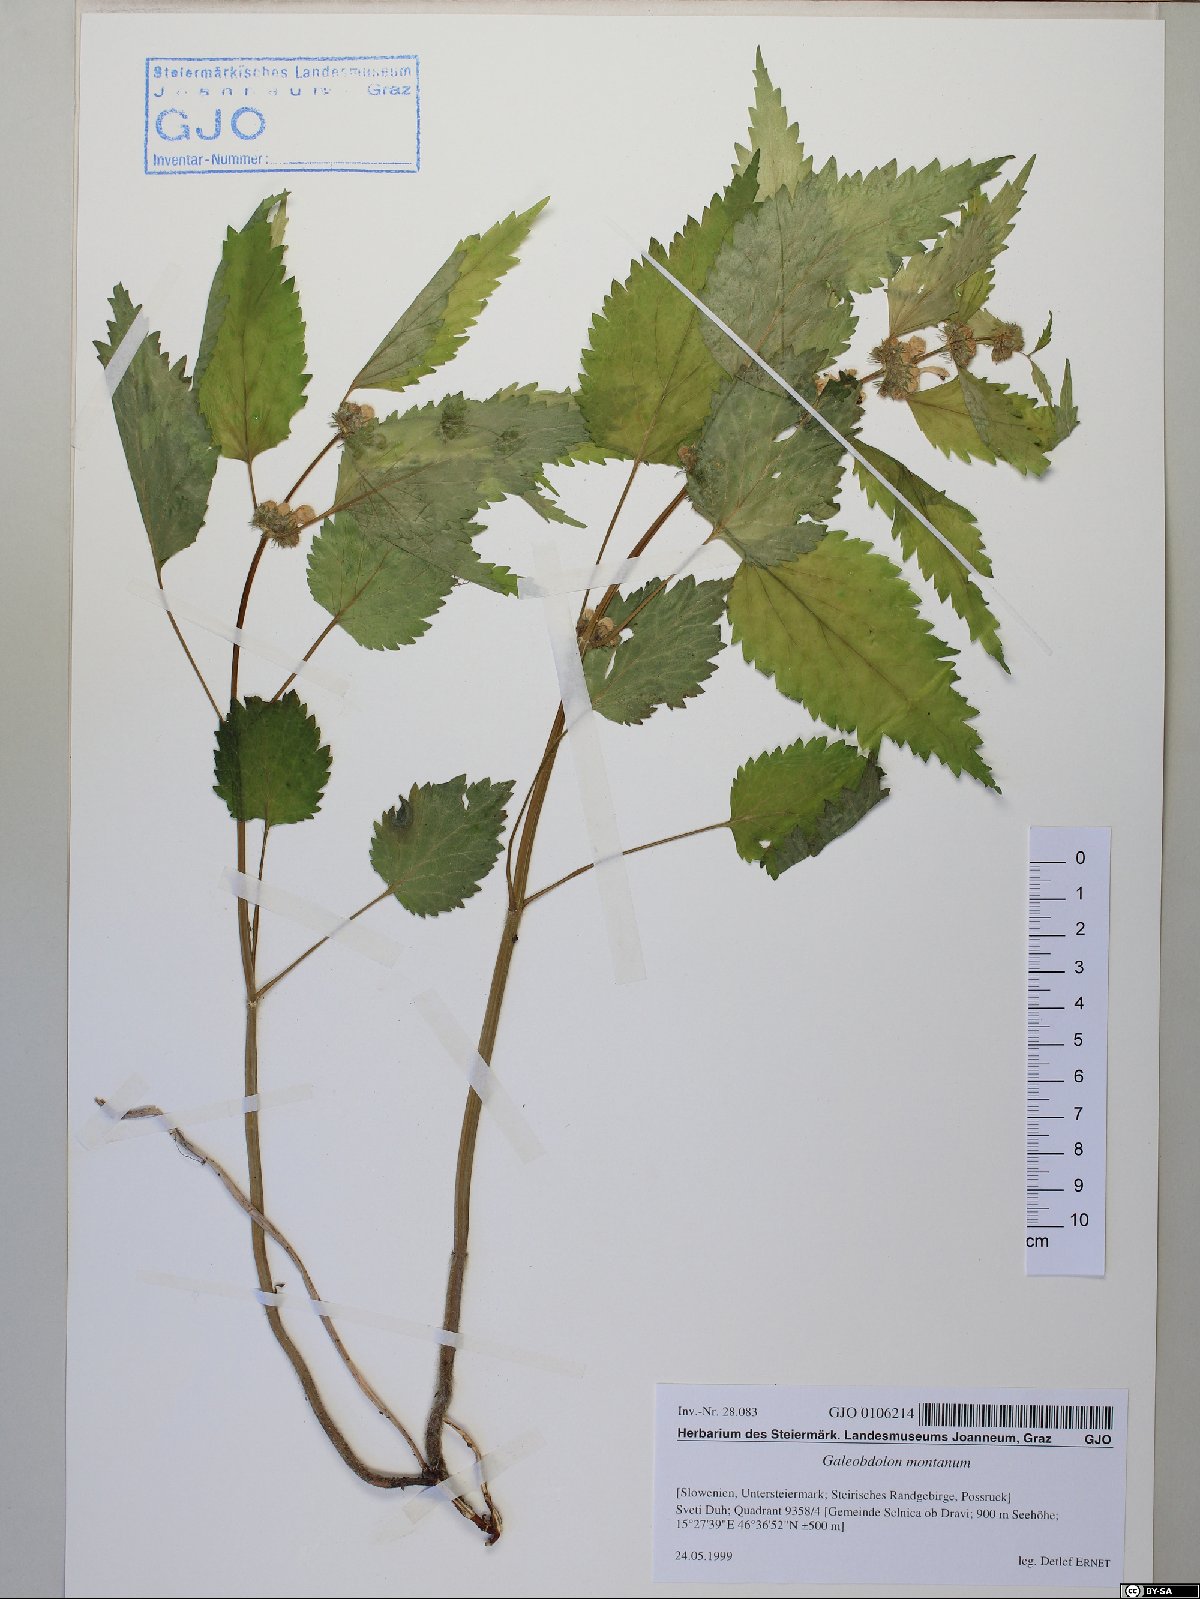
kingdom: Plantae
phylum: Tracheophyta
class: Magnoliopsida
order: Lamiales
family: Lamiaceae
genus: Lamium
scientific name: Lamium galeobdolon
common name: Yellow archangel
